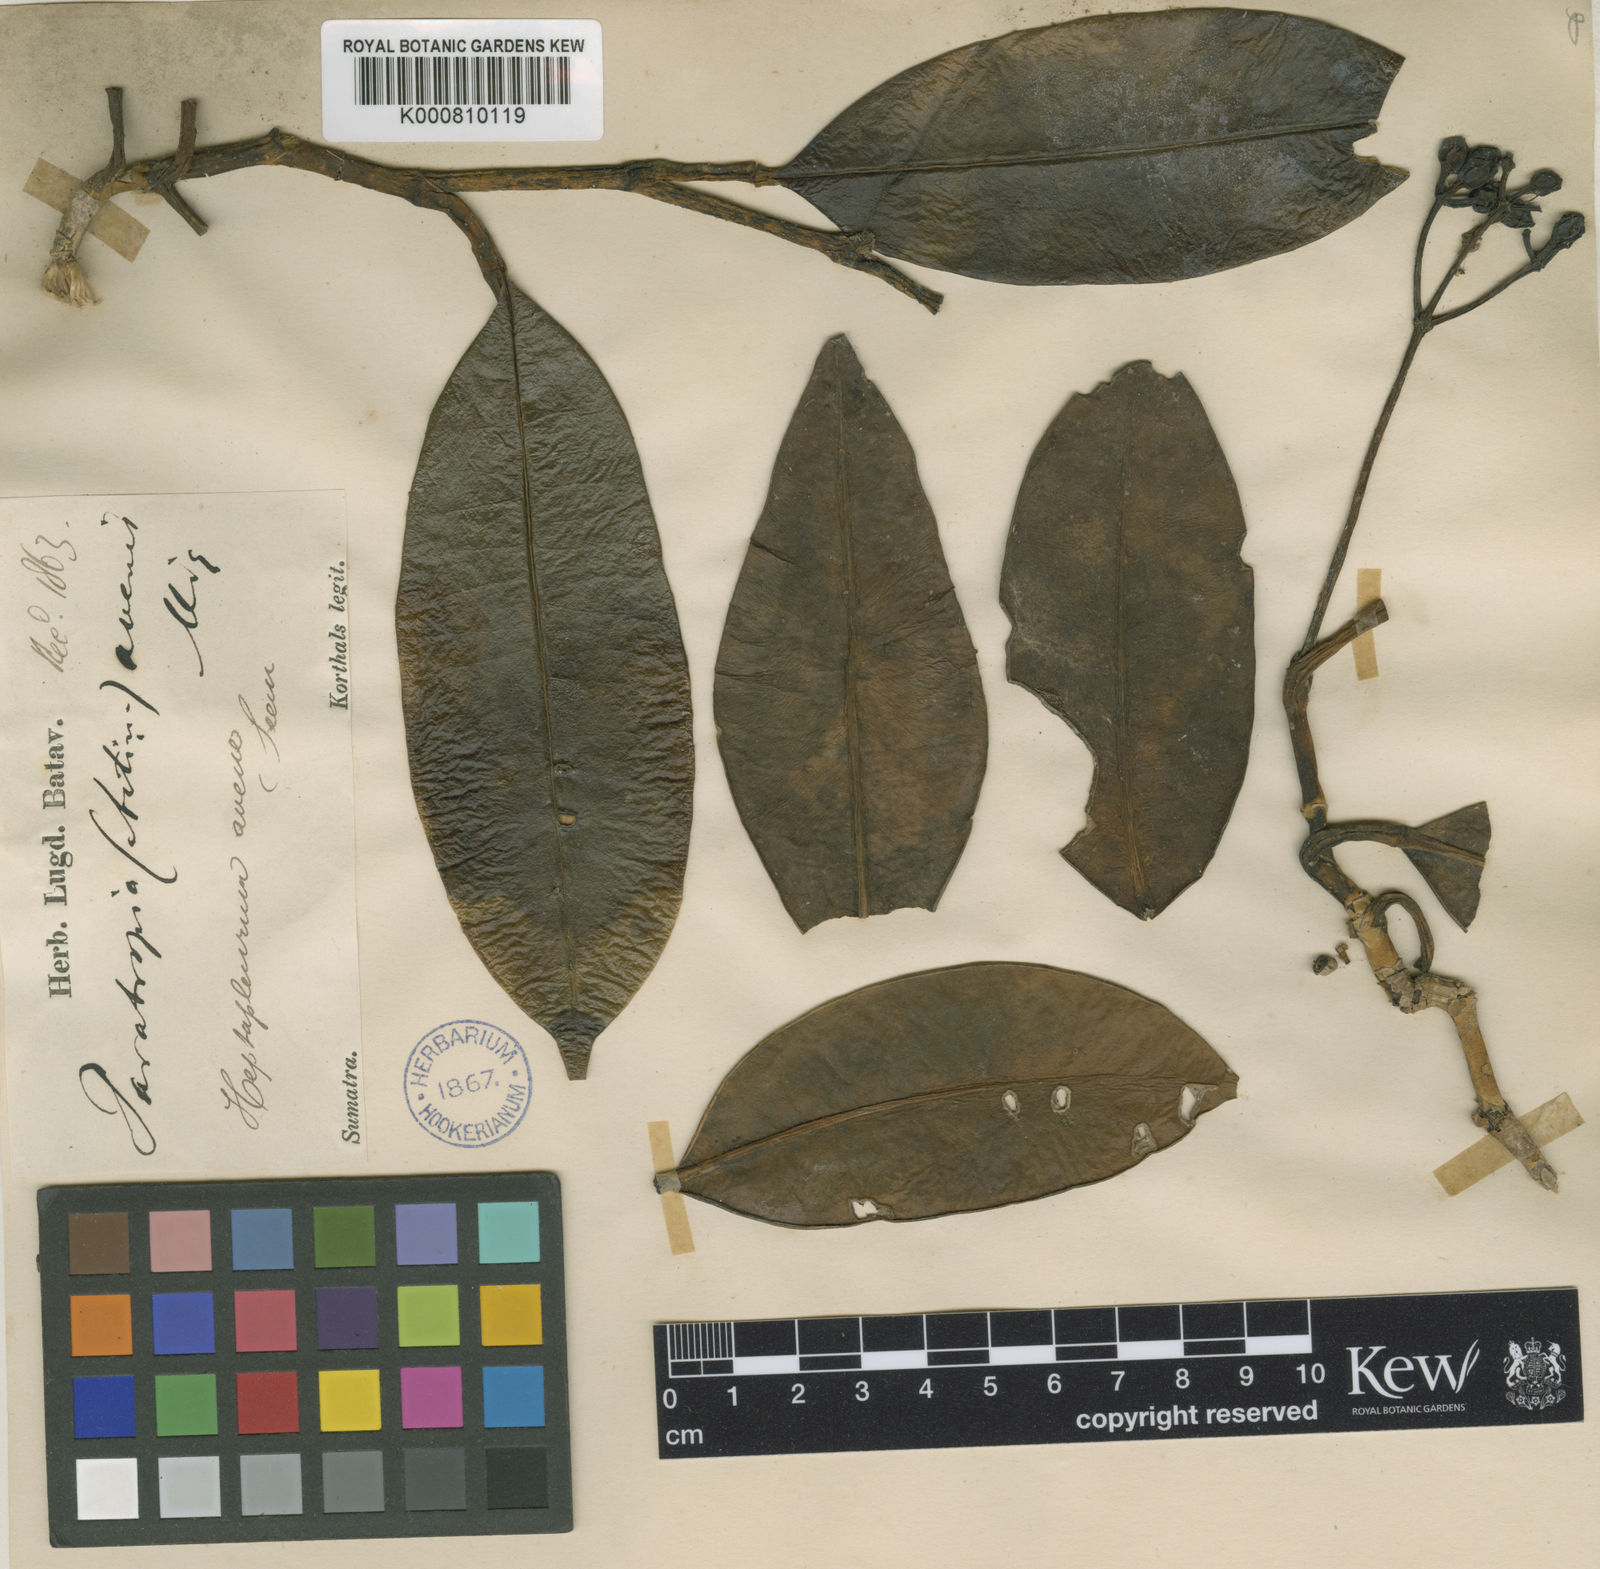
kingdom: Plantae
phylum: Tracheophyta
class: Magnoliopsida
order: Apiales
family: Araliaceae
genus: Heptapleurum
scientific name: Heptapleurum avene
